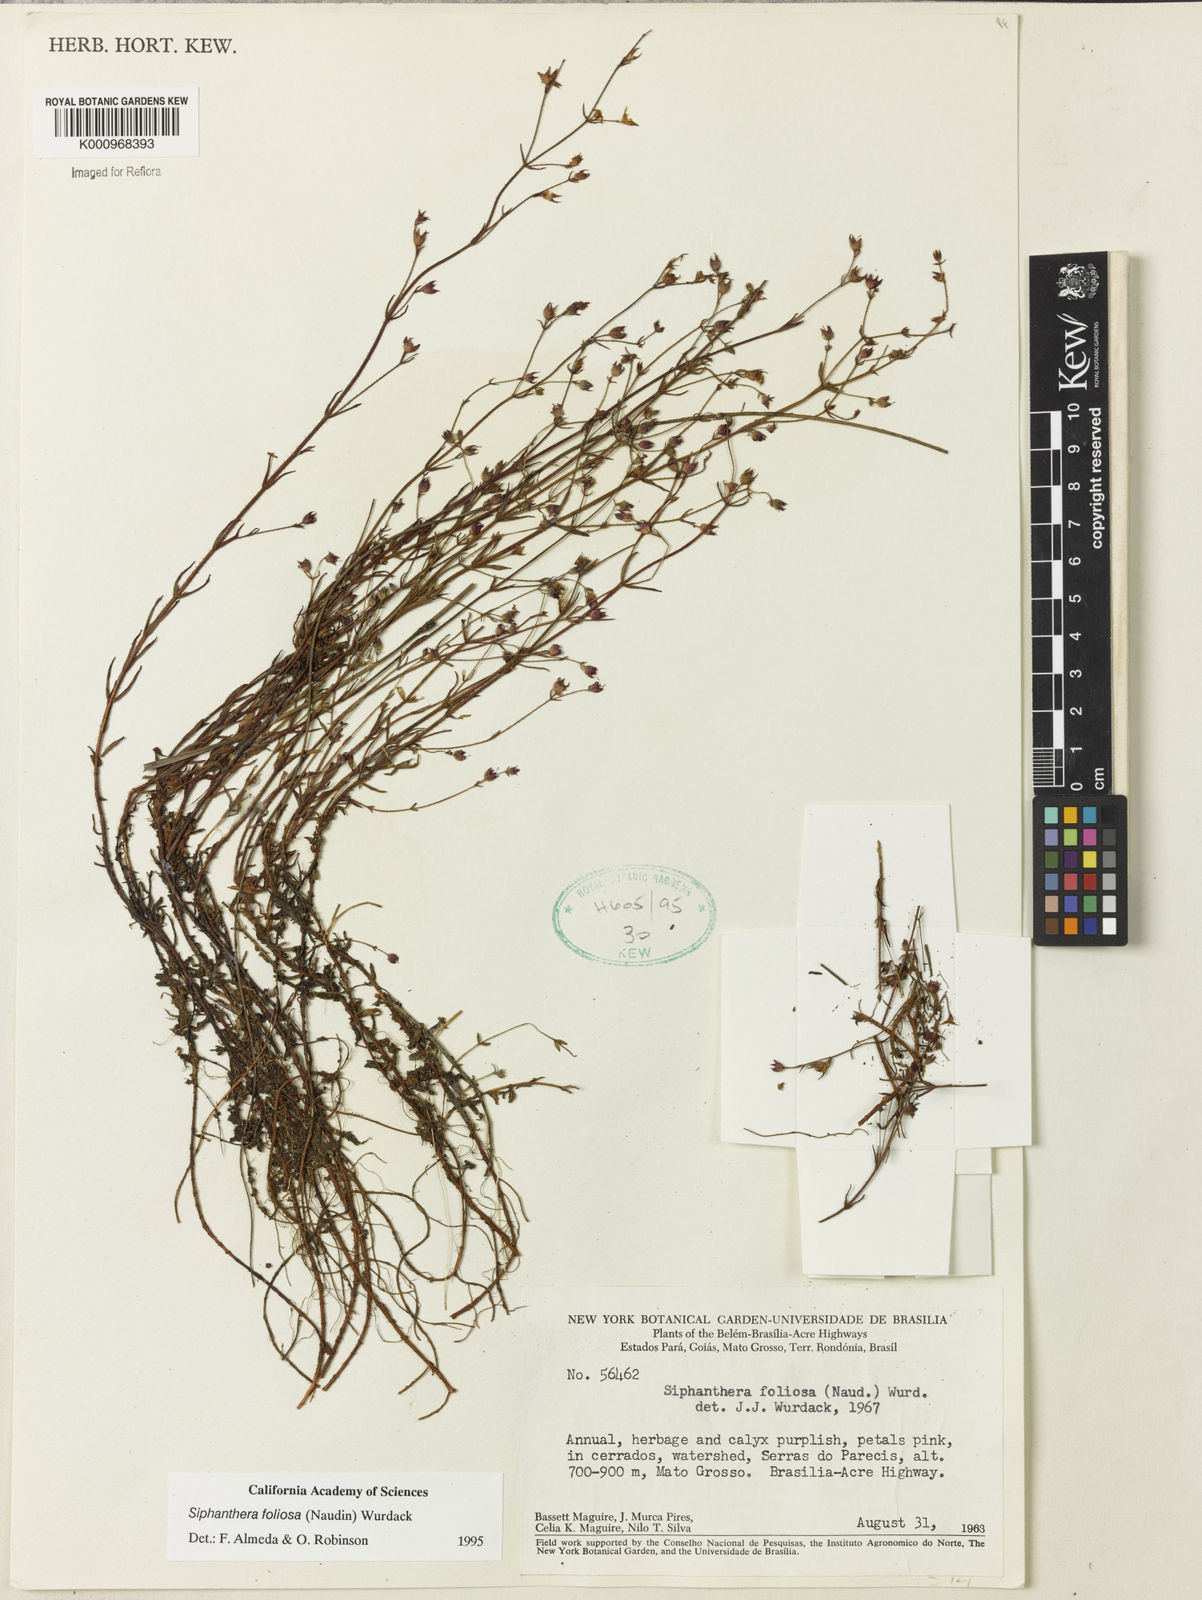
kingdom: Plantae
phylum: Tracheophyta
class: Magnoliopsida
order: Myrtales
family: Melastomataceae
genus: Siphanthera
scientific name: Siphanthera foliosa
